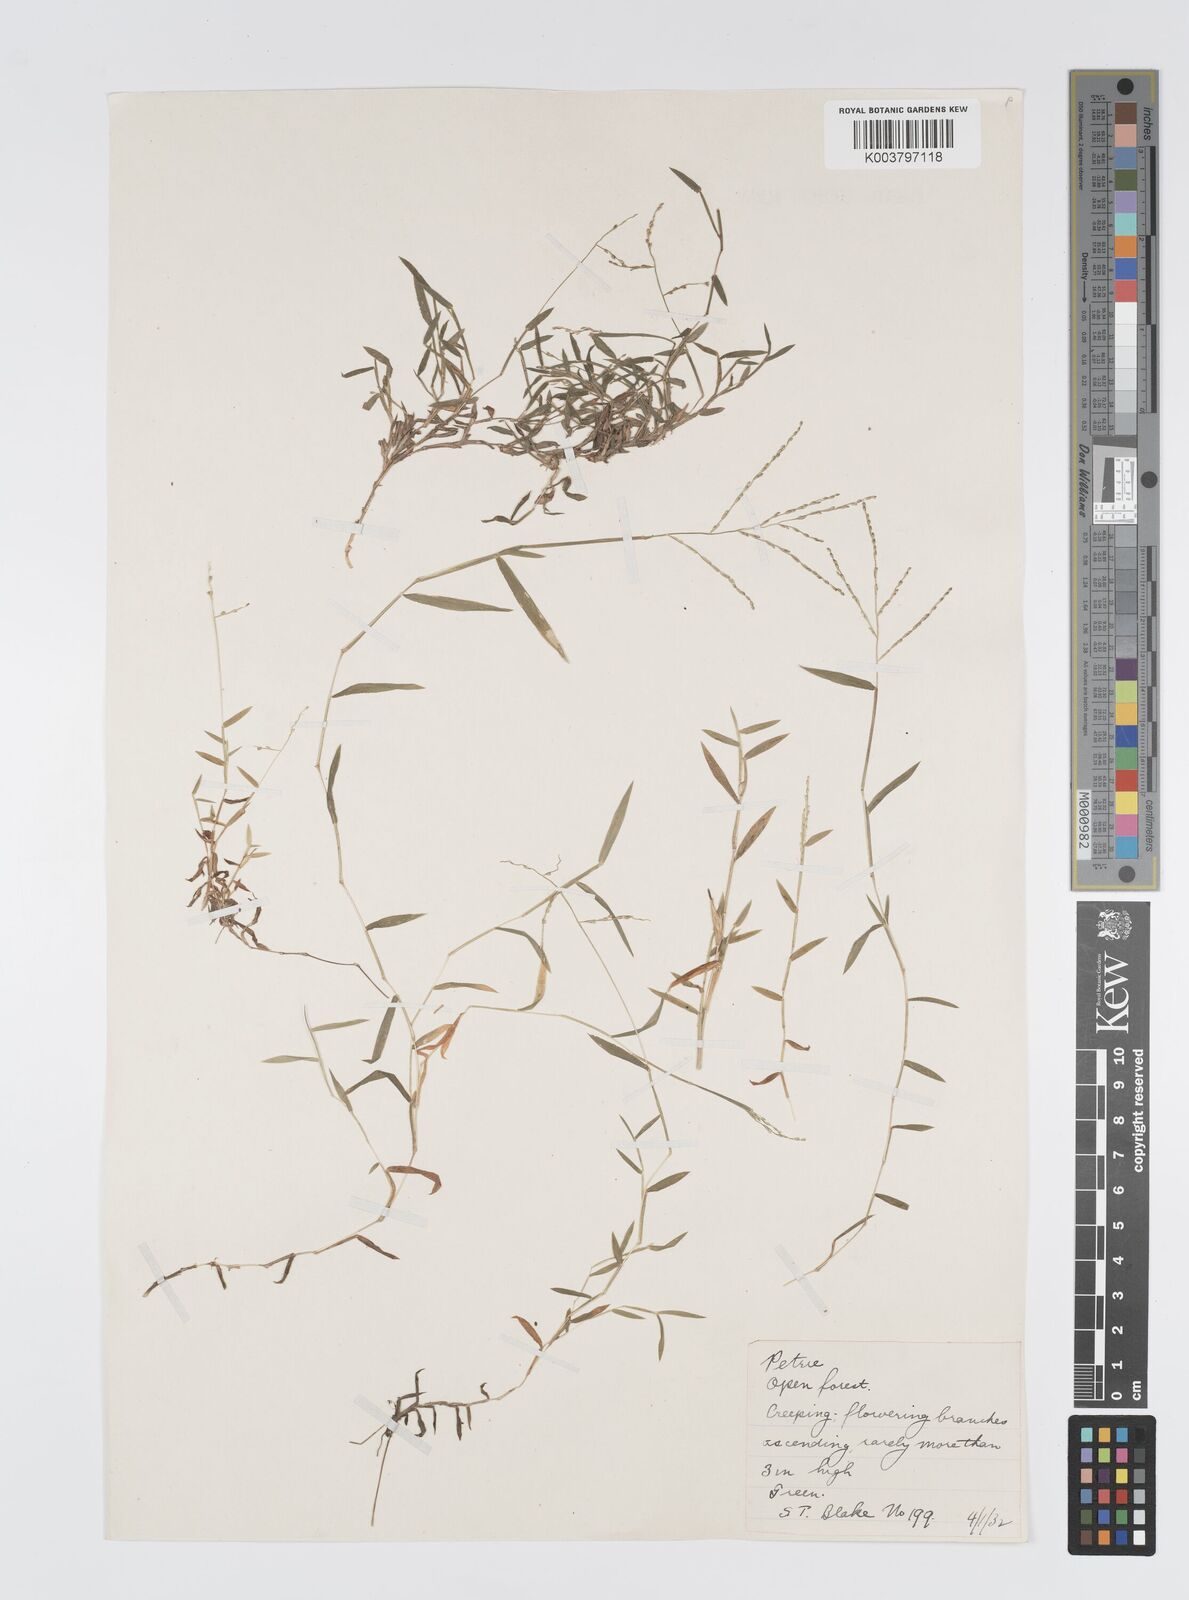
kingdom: Plantae
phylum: Tracheophyta
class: Liliopsida
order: Poales
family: Poaceae
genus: Digitaria
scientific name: Digitaria diffusa
